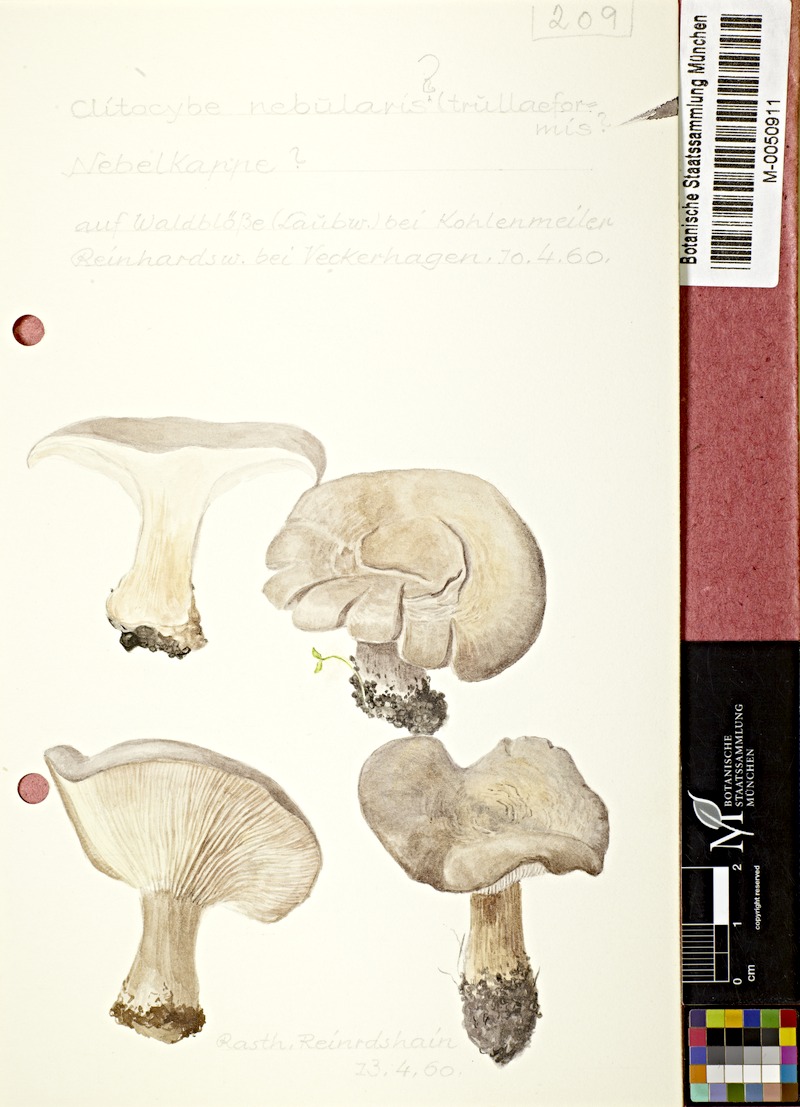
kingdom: Fungi
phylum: Basidiomycota
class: Agaricomycetes
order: Agaricales
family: Tricholomataceae
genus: Clitocybe
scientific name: Clitocybe nebularis
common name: Clouded agaric
